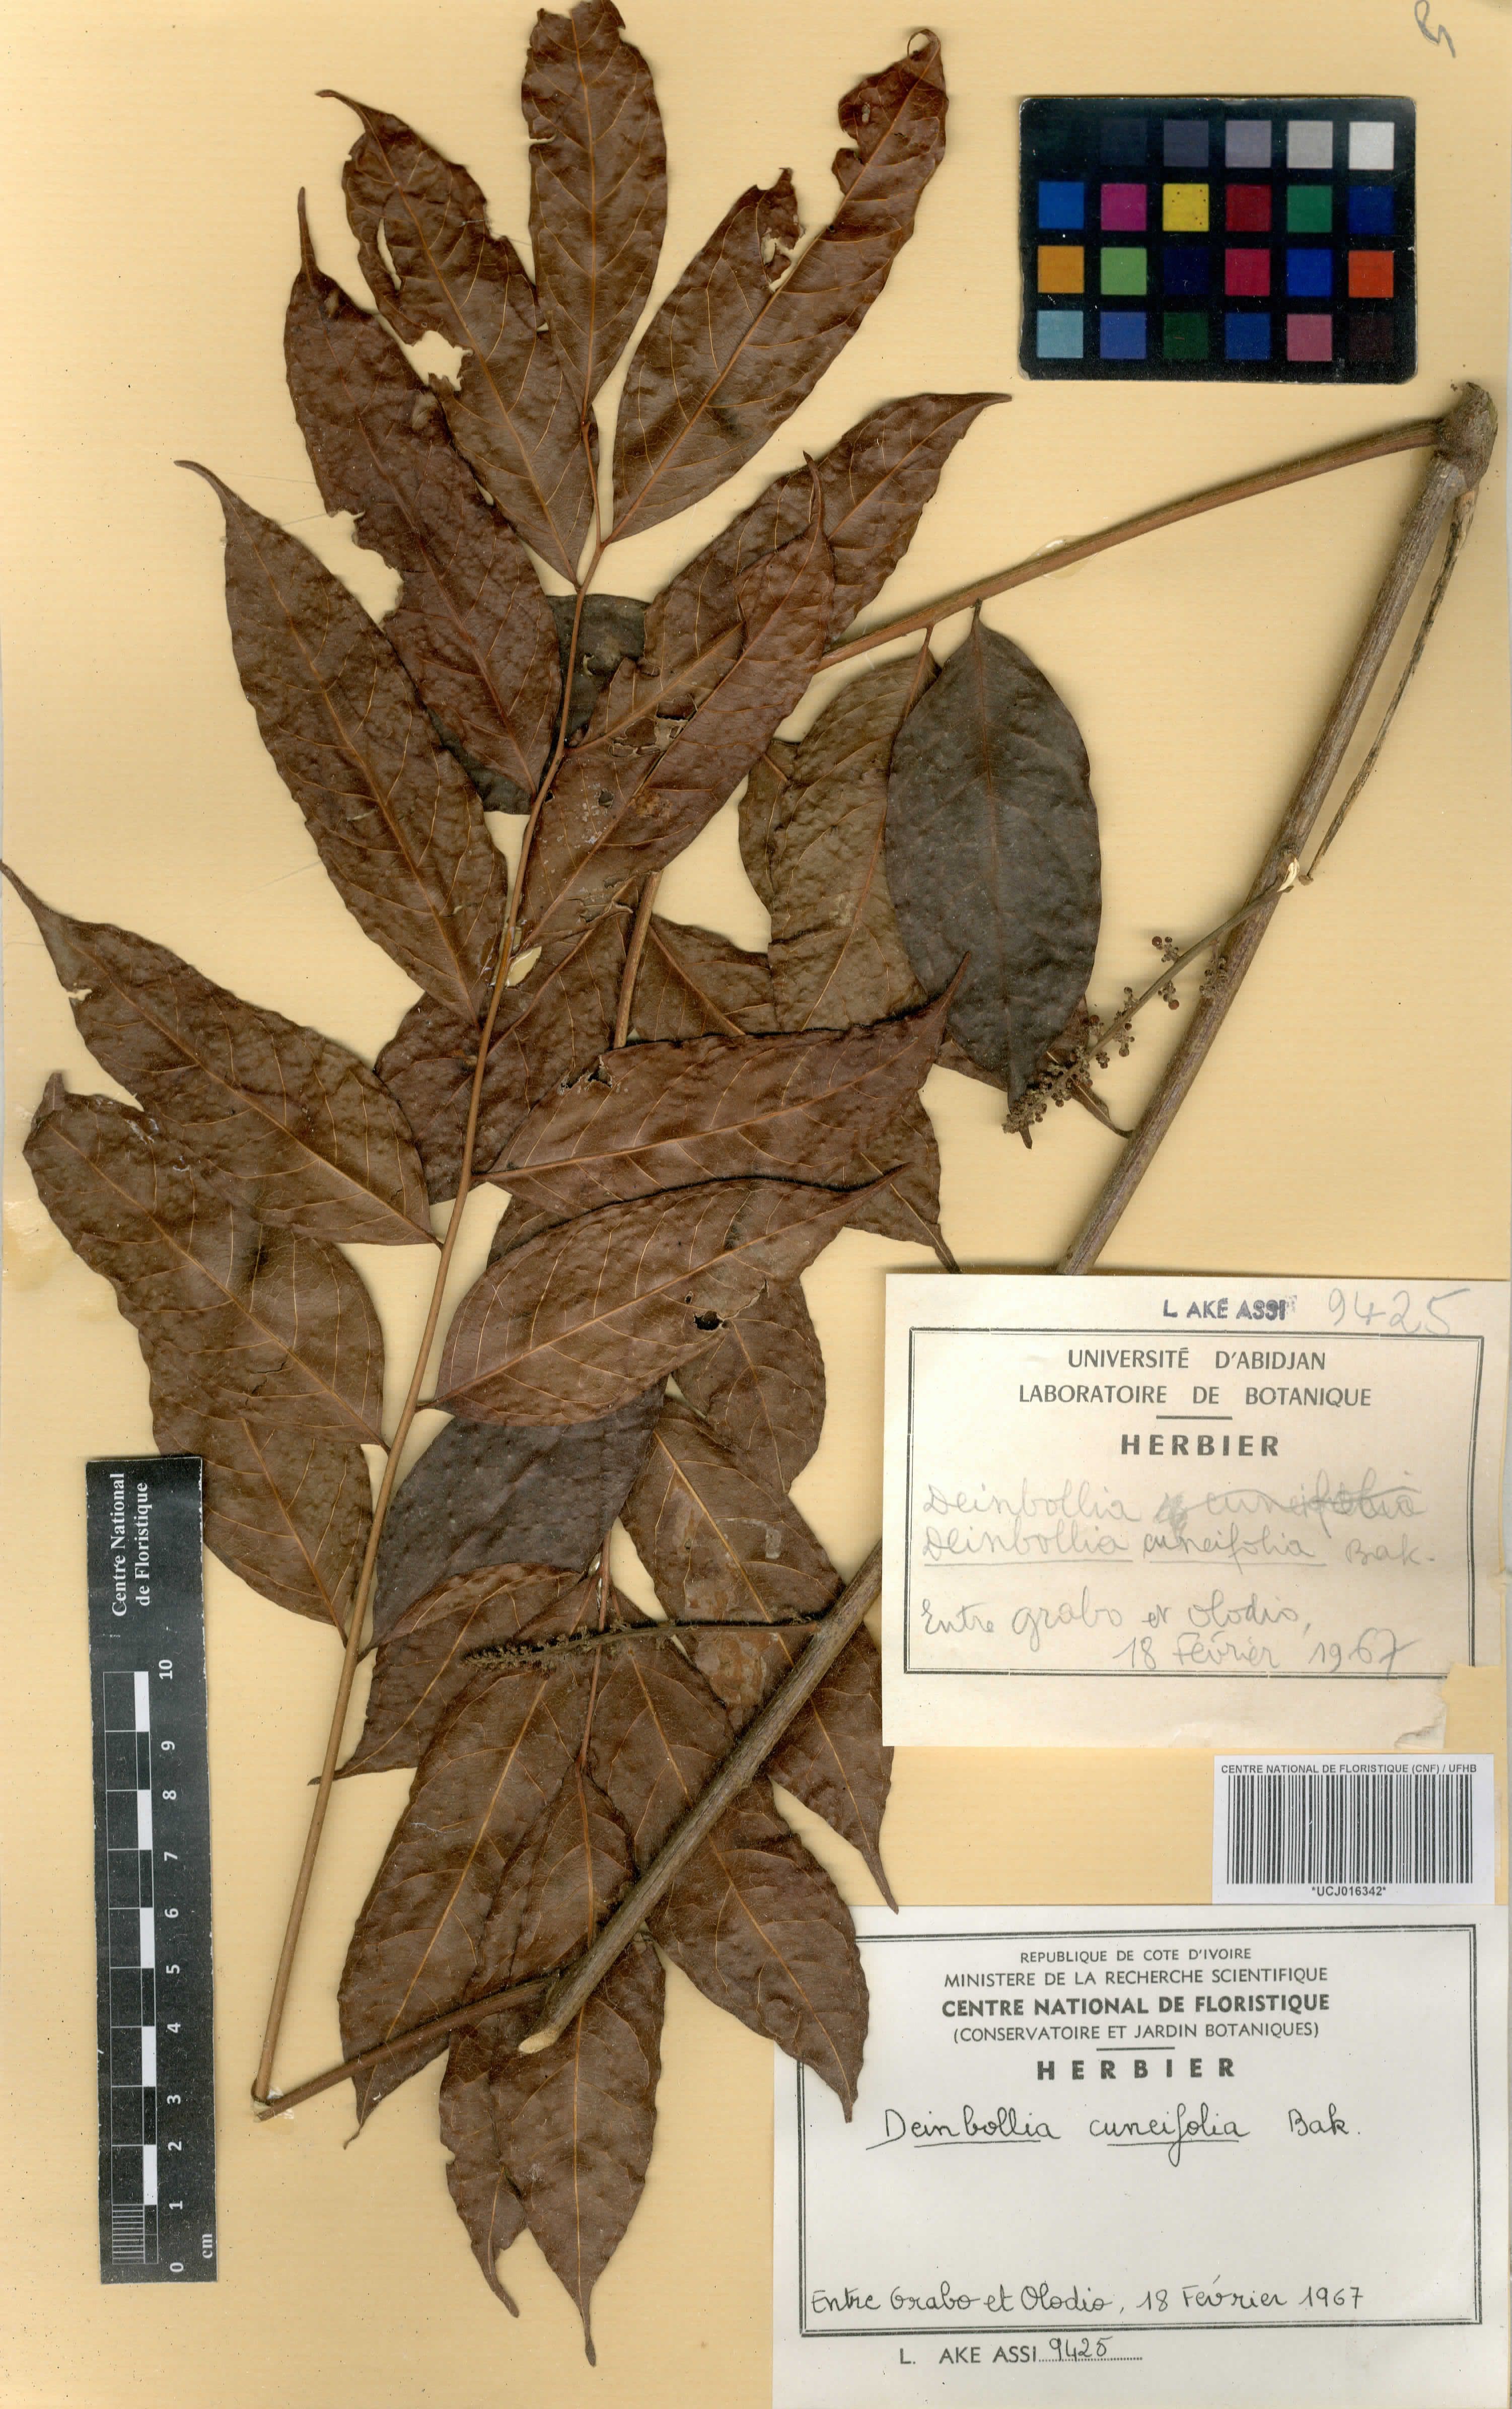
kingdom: Plantae
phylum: Tracheophyta
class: Magnoliopsida
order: Sapindales
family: Sapindaceae
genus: Deinbollia
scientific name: Deinbollia cuneifolia
